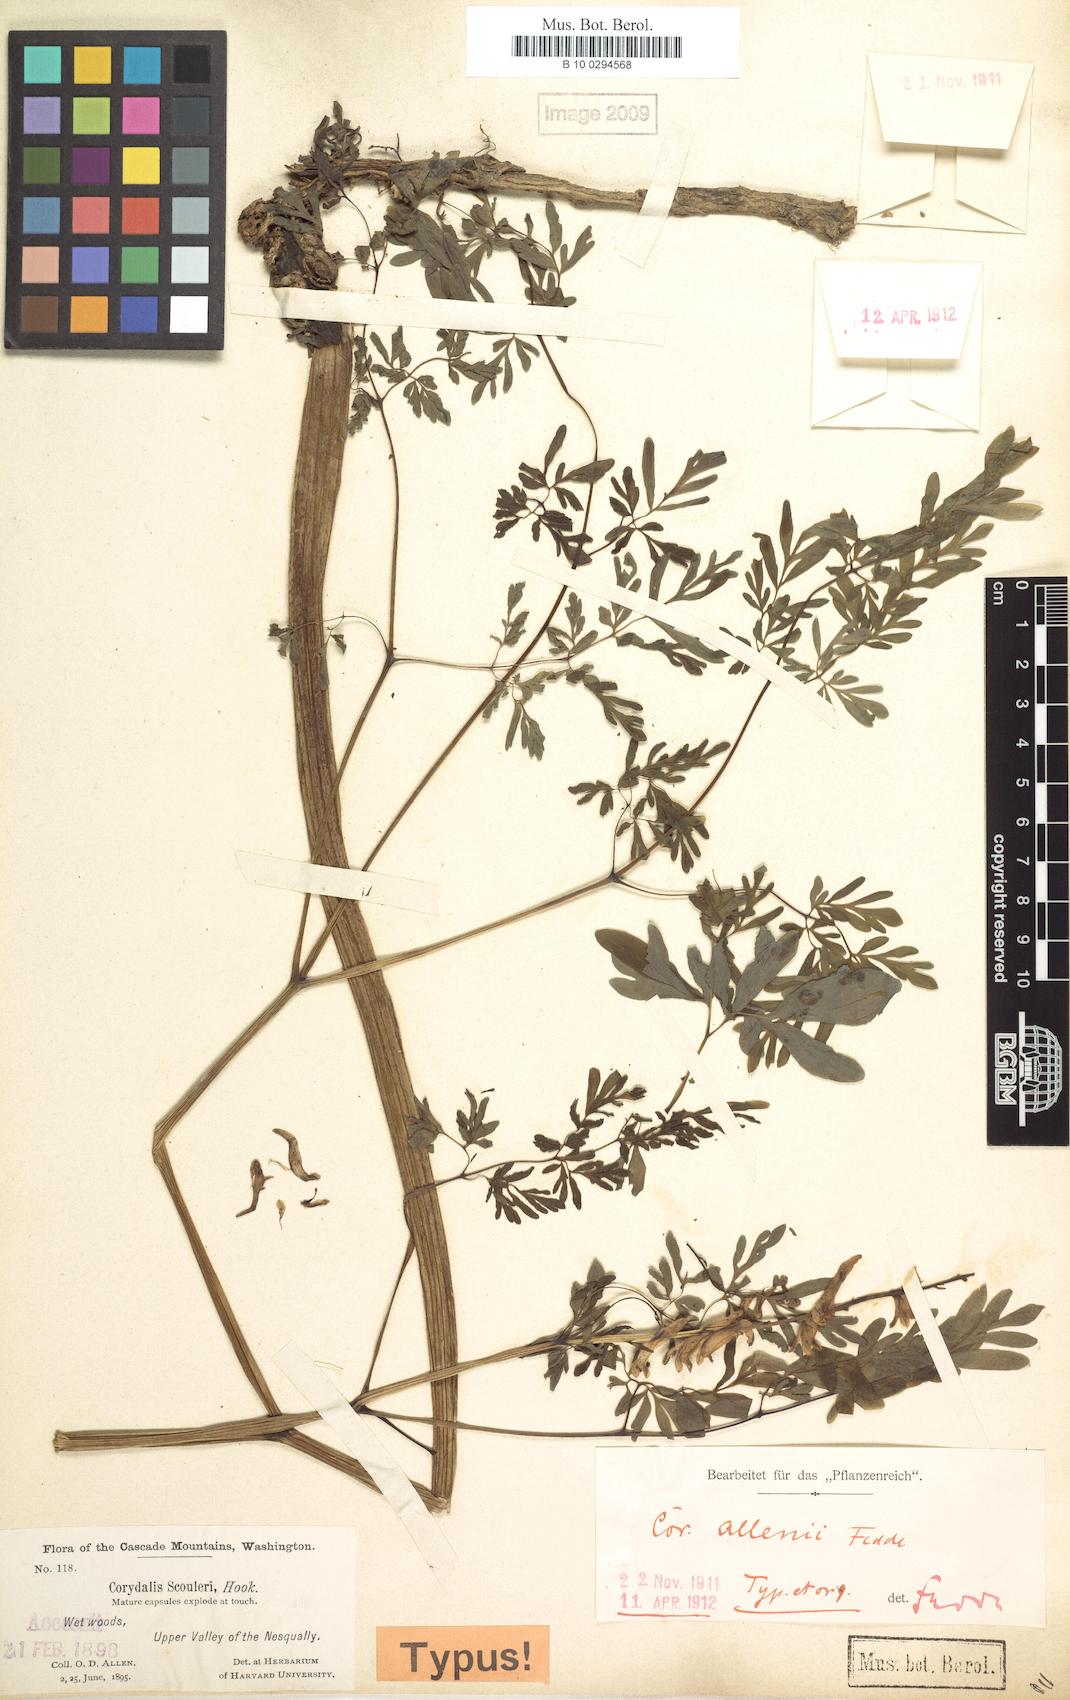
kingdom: Plantae
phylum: Tracheophyta
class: Magnoliopsida
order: Ranunculales
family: Papaveraceae
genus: Corydalis
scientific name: Corydalis scouleri
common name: Scouler's corydalis
